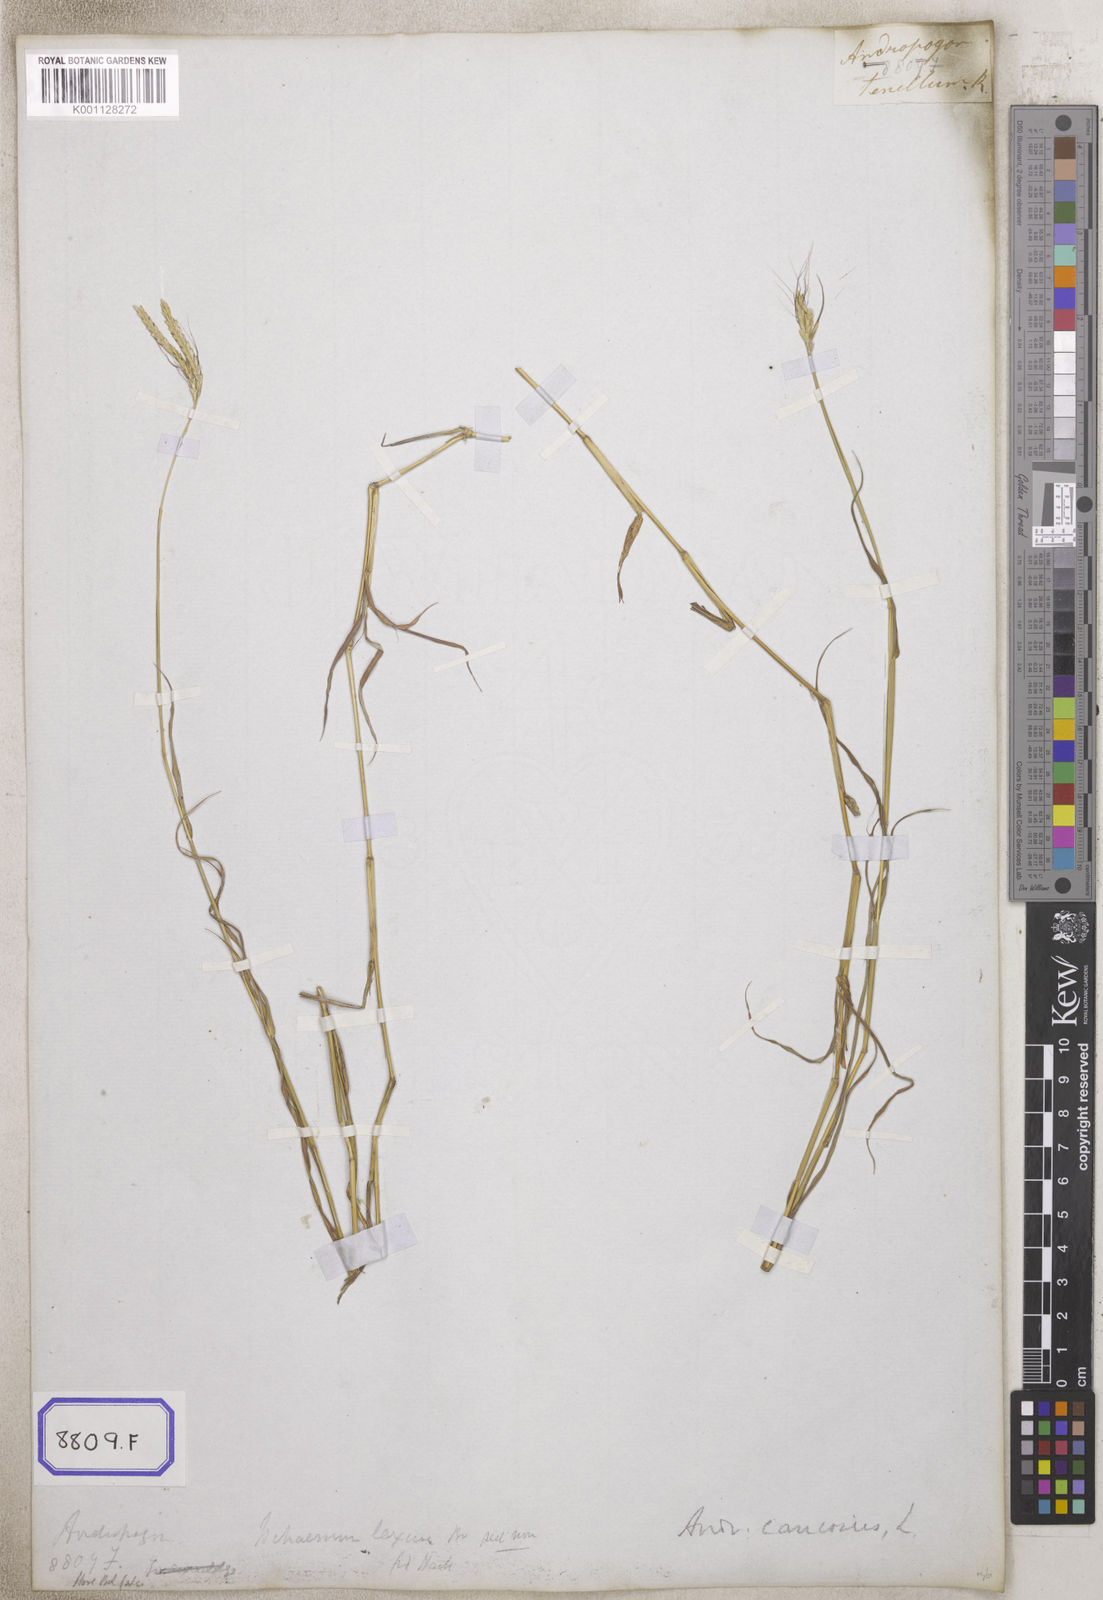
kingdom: Plantae
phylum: Tracheophyta
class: Liliopsida
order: Poales
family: Poaceae
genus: Andropogon
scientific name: Andropogon
